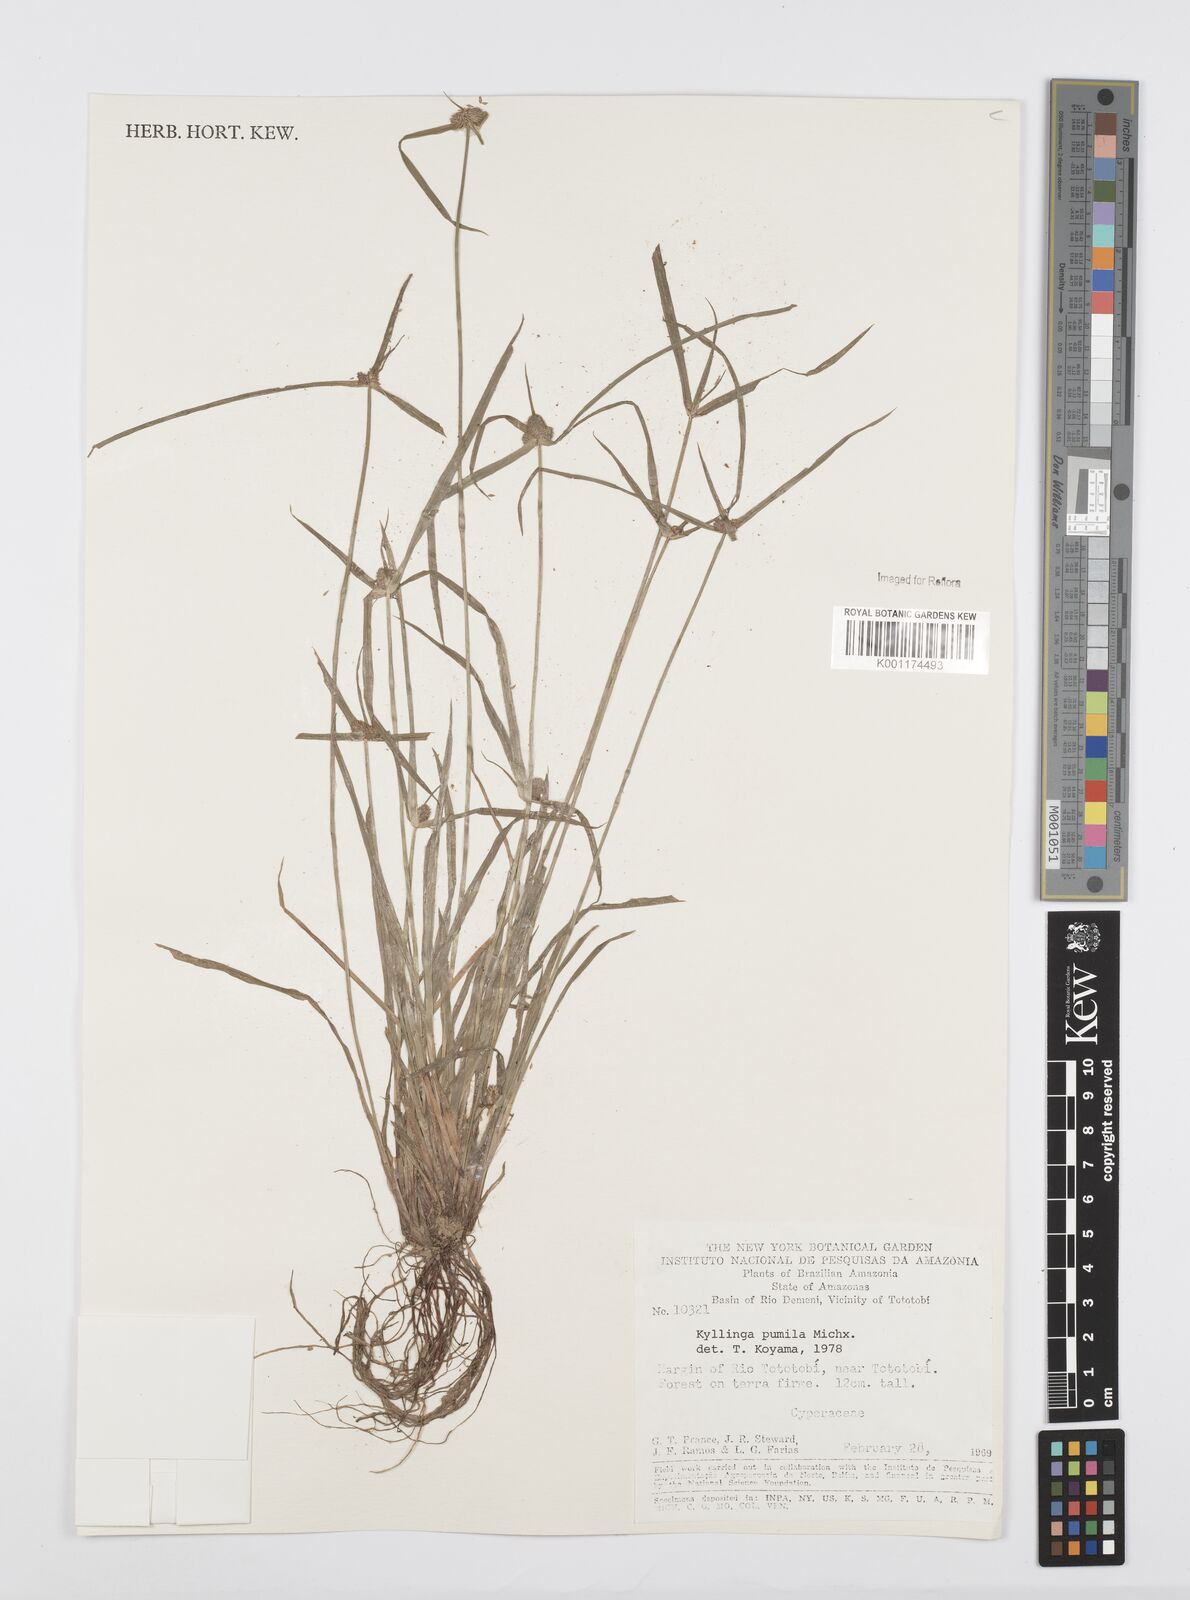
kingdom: Plantae
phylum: Tracheophyta
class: Liliopsida
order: Poales
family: Cyperaceae
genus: Cyperus
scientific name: Cyperus
